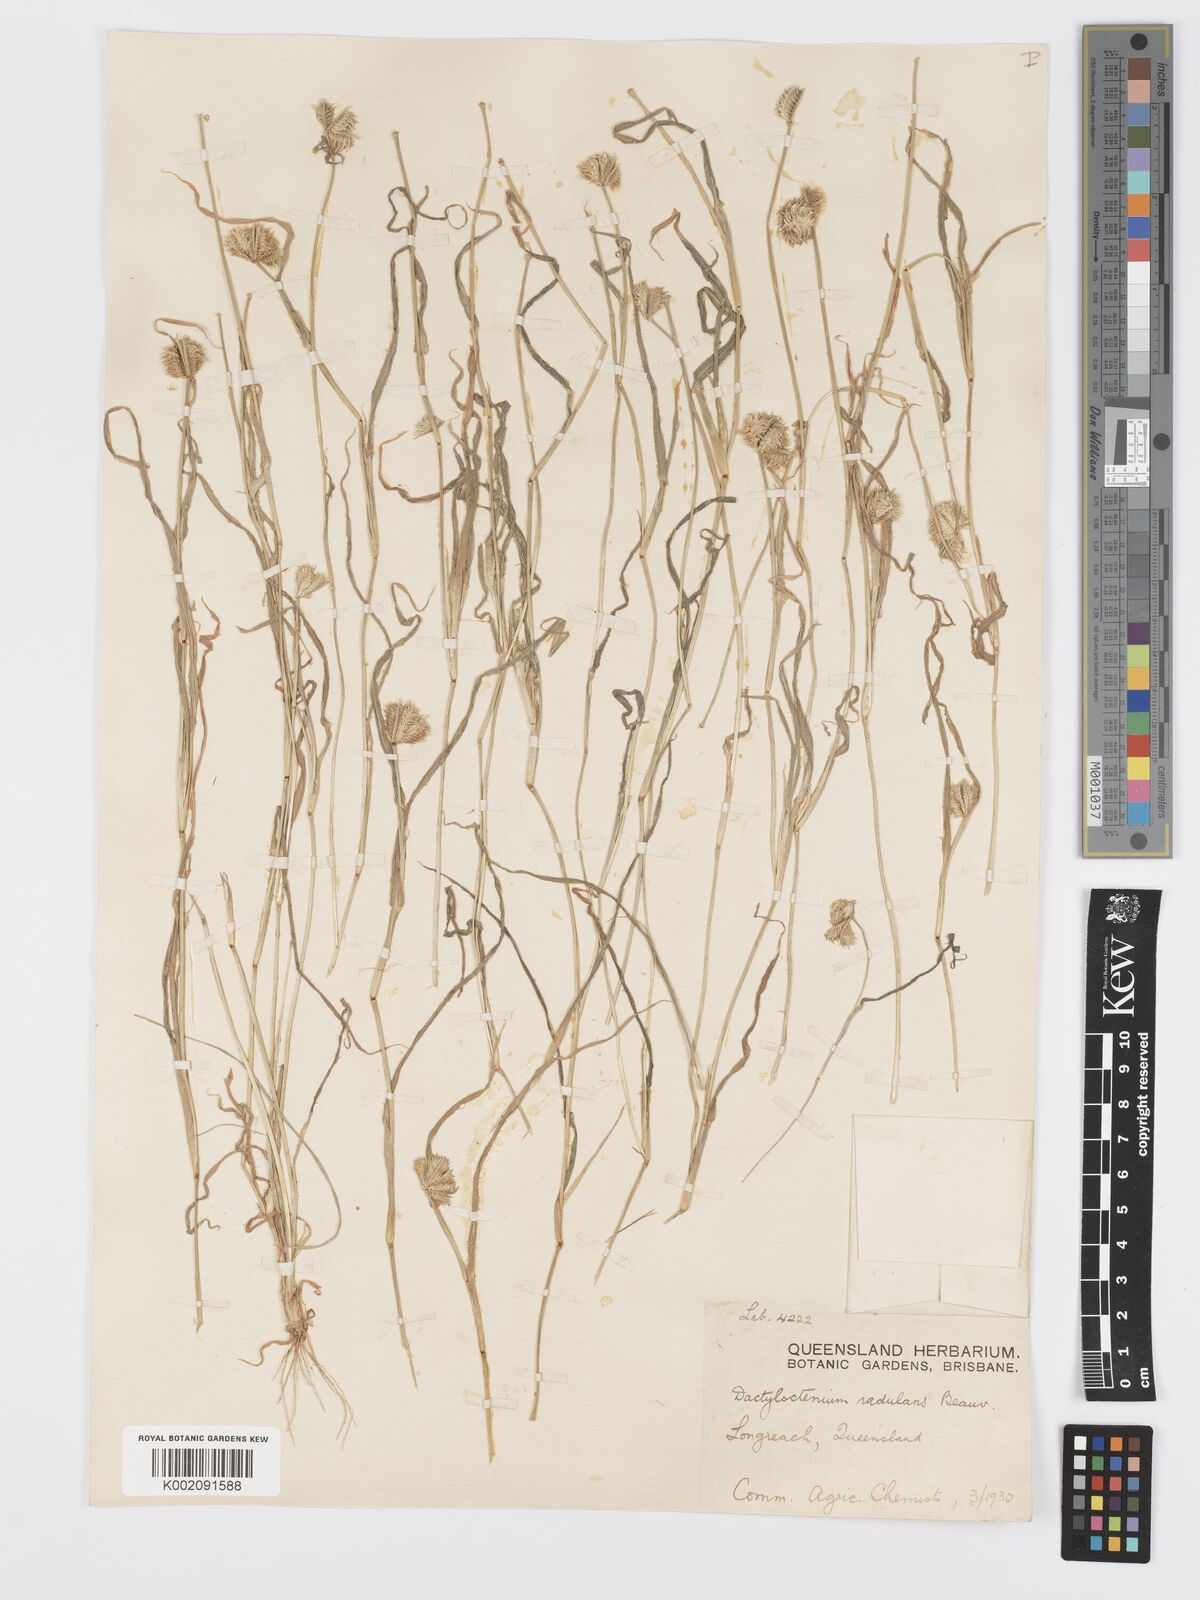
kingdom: Plantae
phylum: Tracheophyta
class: Liliopsida
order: Poales
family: Poaceae
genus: Dactyloctenium
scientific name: Dactyloctenium radulans
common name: Button-grass
